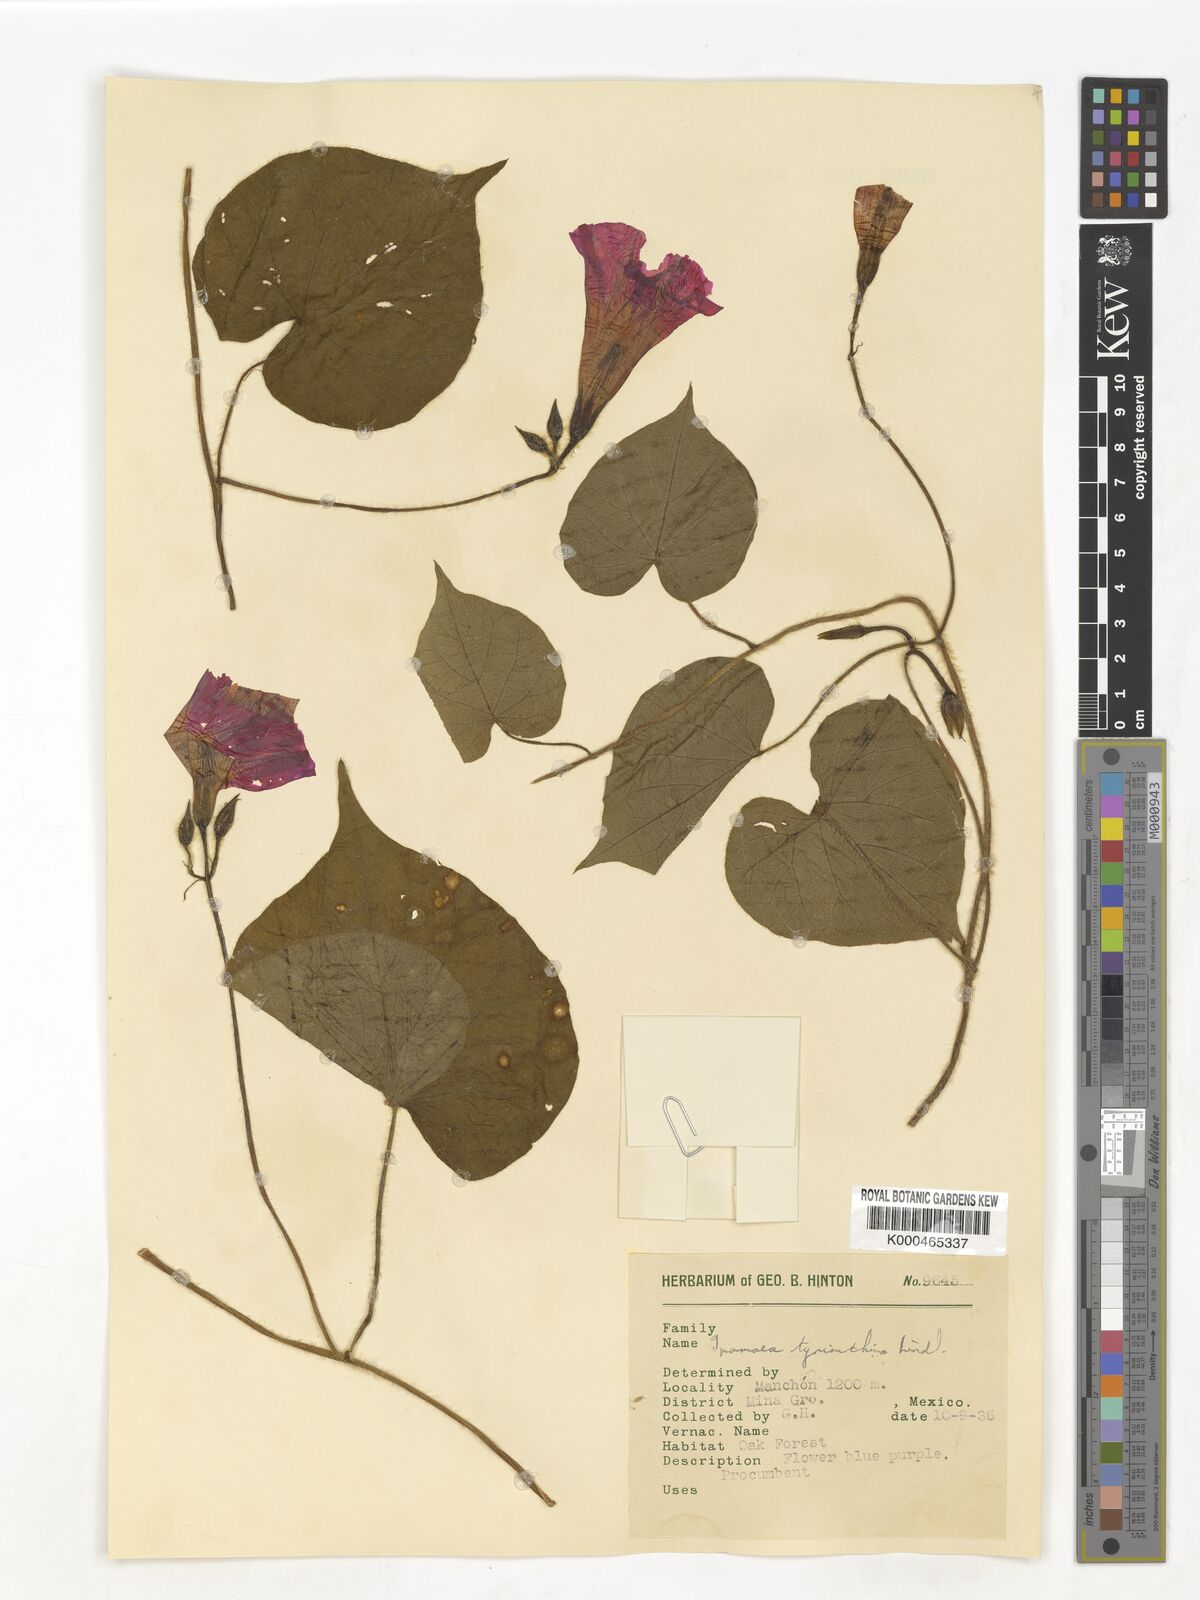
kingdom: Plantae
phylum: Tracheophyta
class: Magnoliopsida
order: Solanales
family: Convolvulaceae
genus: Ipomoea
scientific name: Ipomoea orizabensis
